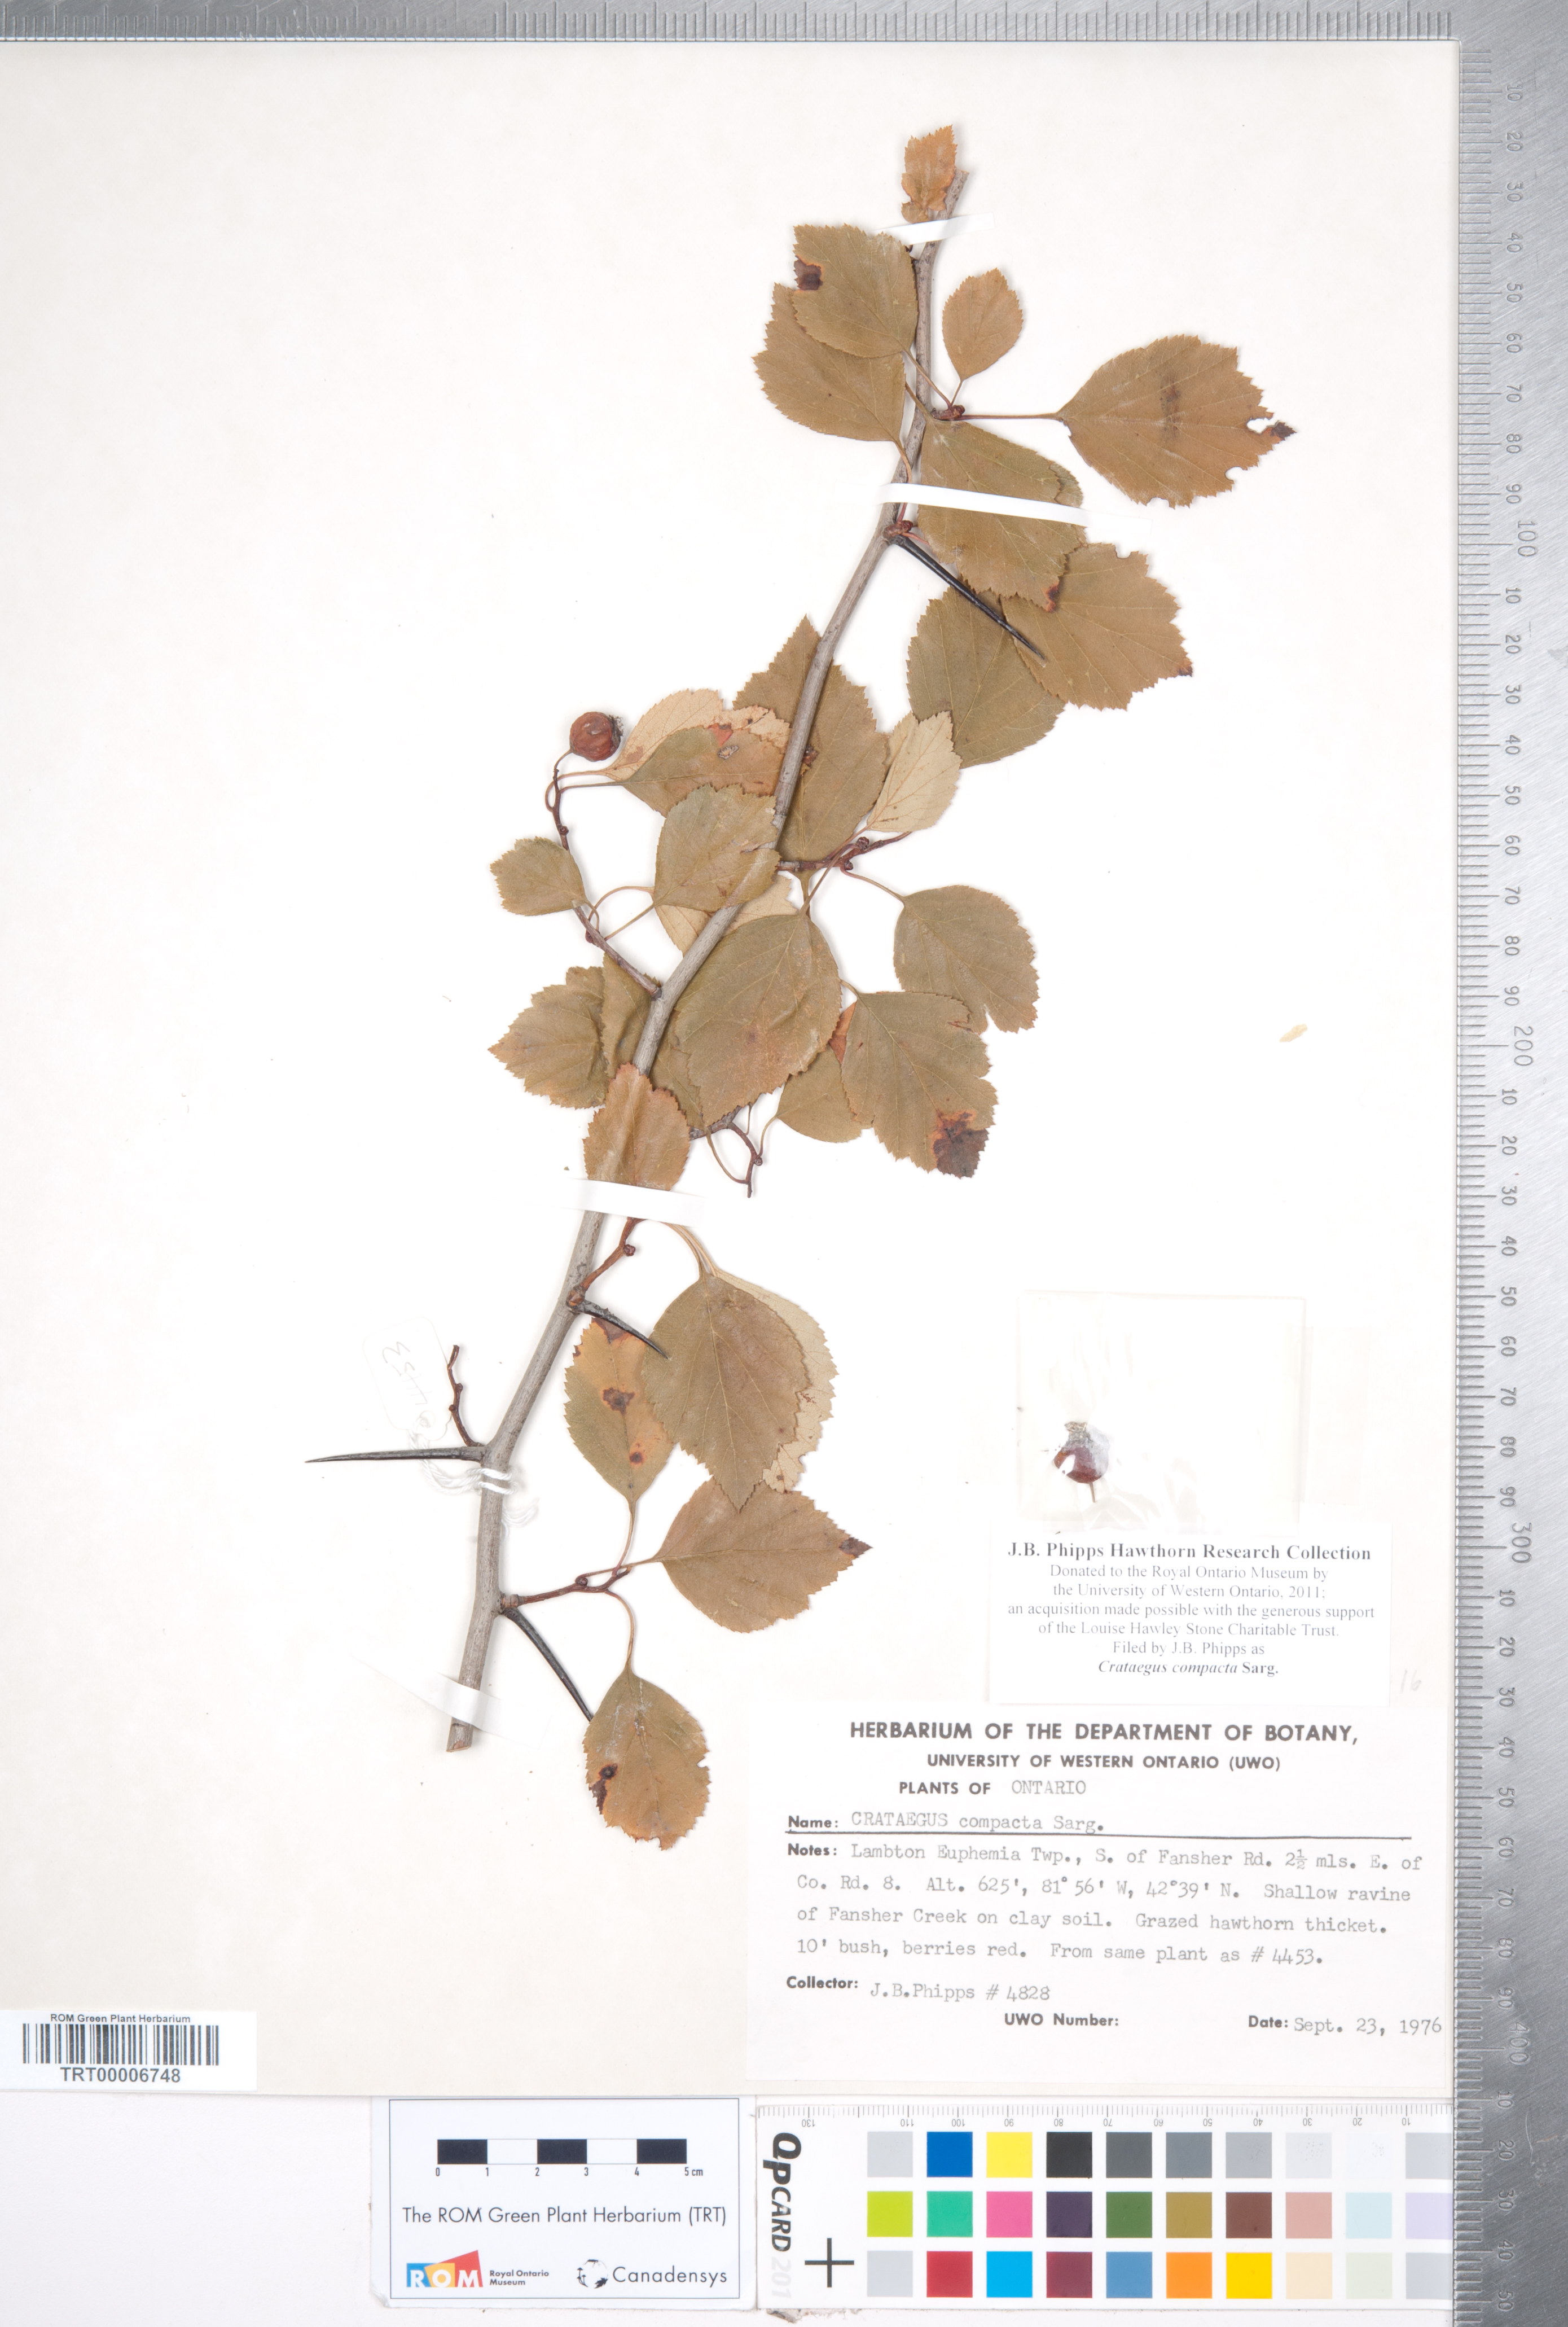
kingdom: Plantae
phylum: Tracheophyta
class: Magnoliopsida
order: Rosales
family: Rosaceae
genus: Crataegus
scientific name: Crataegus compacta
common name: Clustered hawthorn
